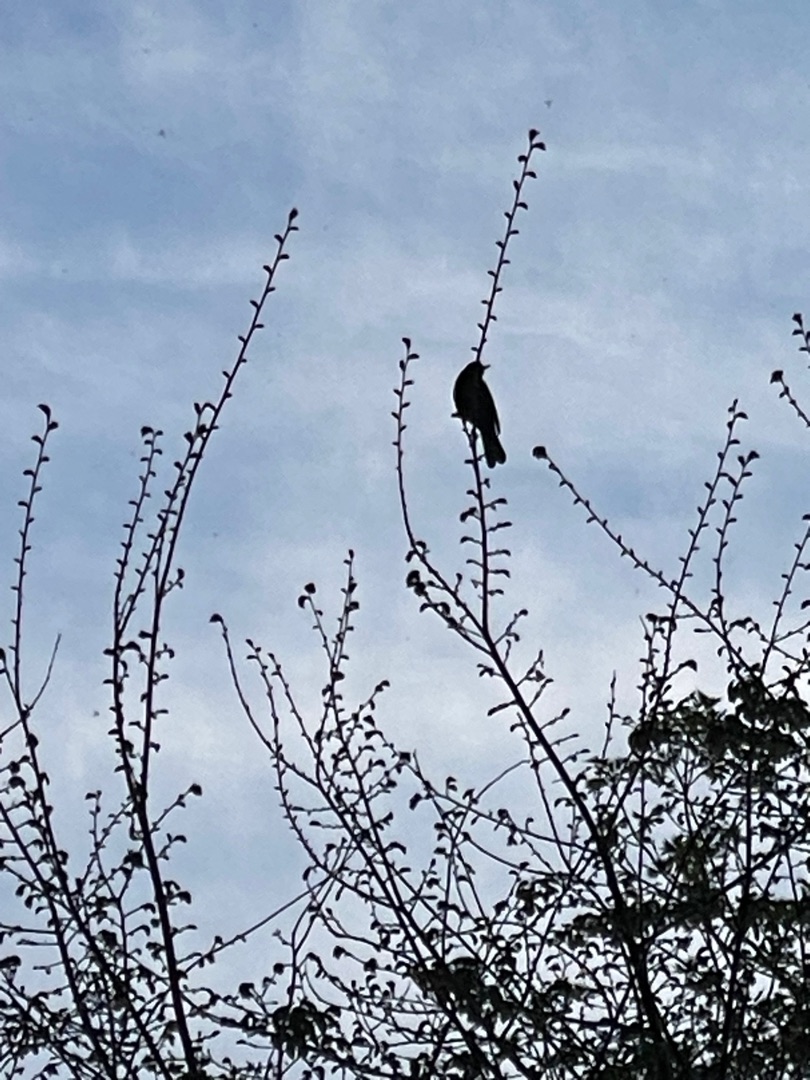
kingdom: Animalia
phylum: Chordata
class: Aves
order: Passeriformes
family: Turdidae
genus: Turdus
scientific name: Turdus merula
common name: Solsort
